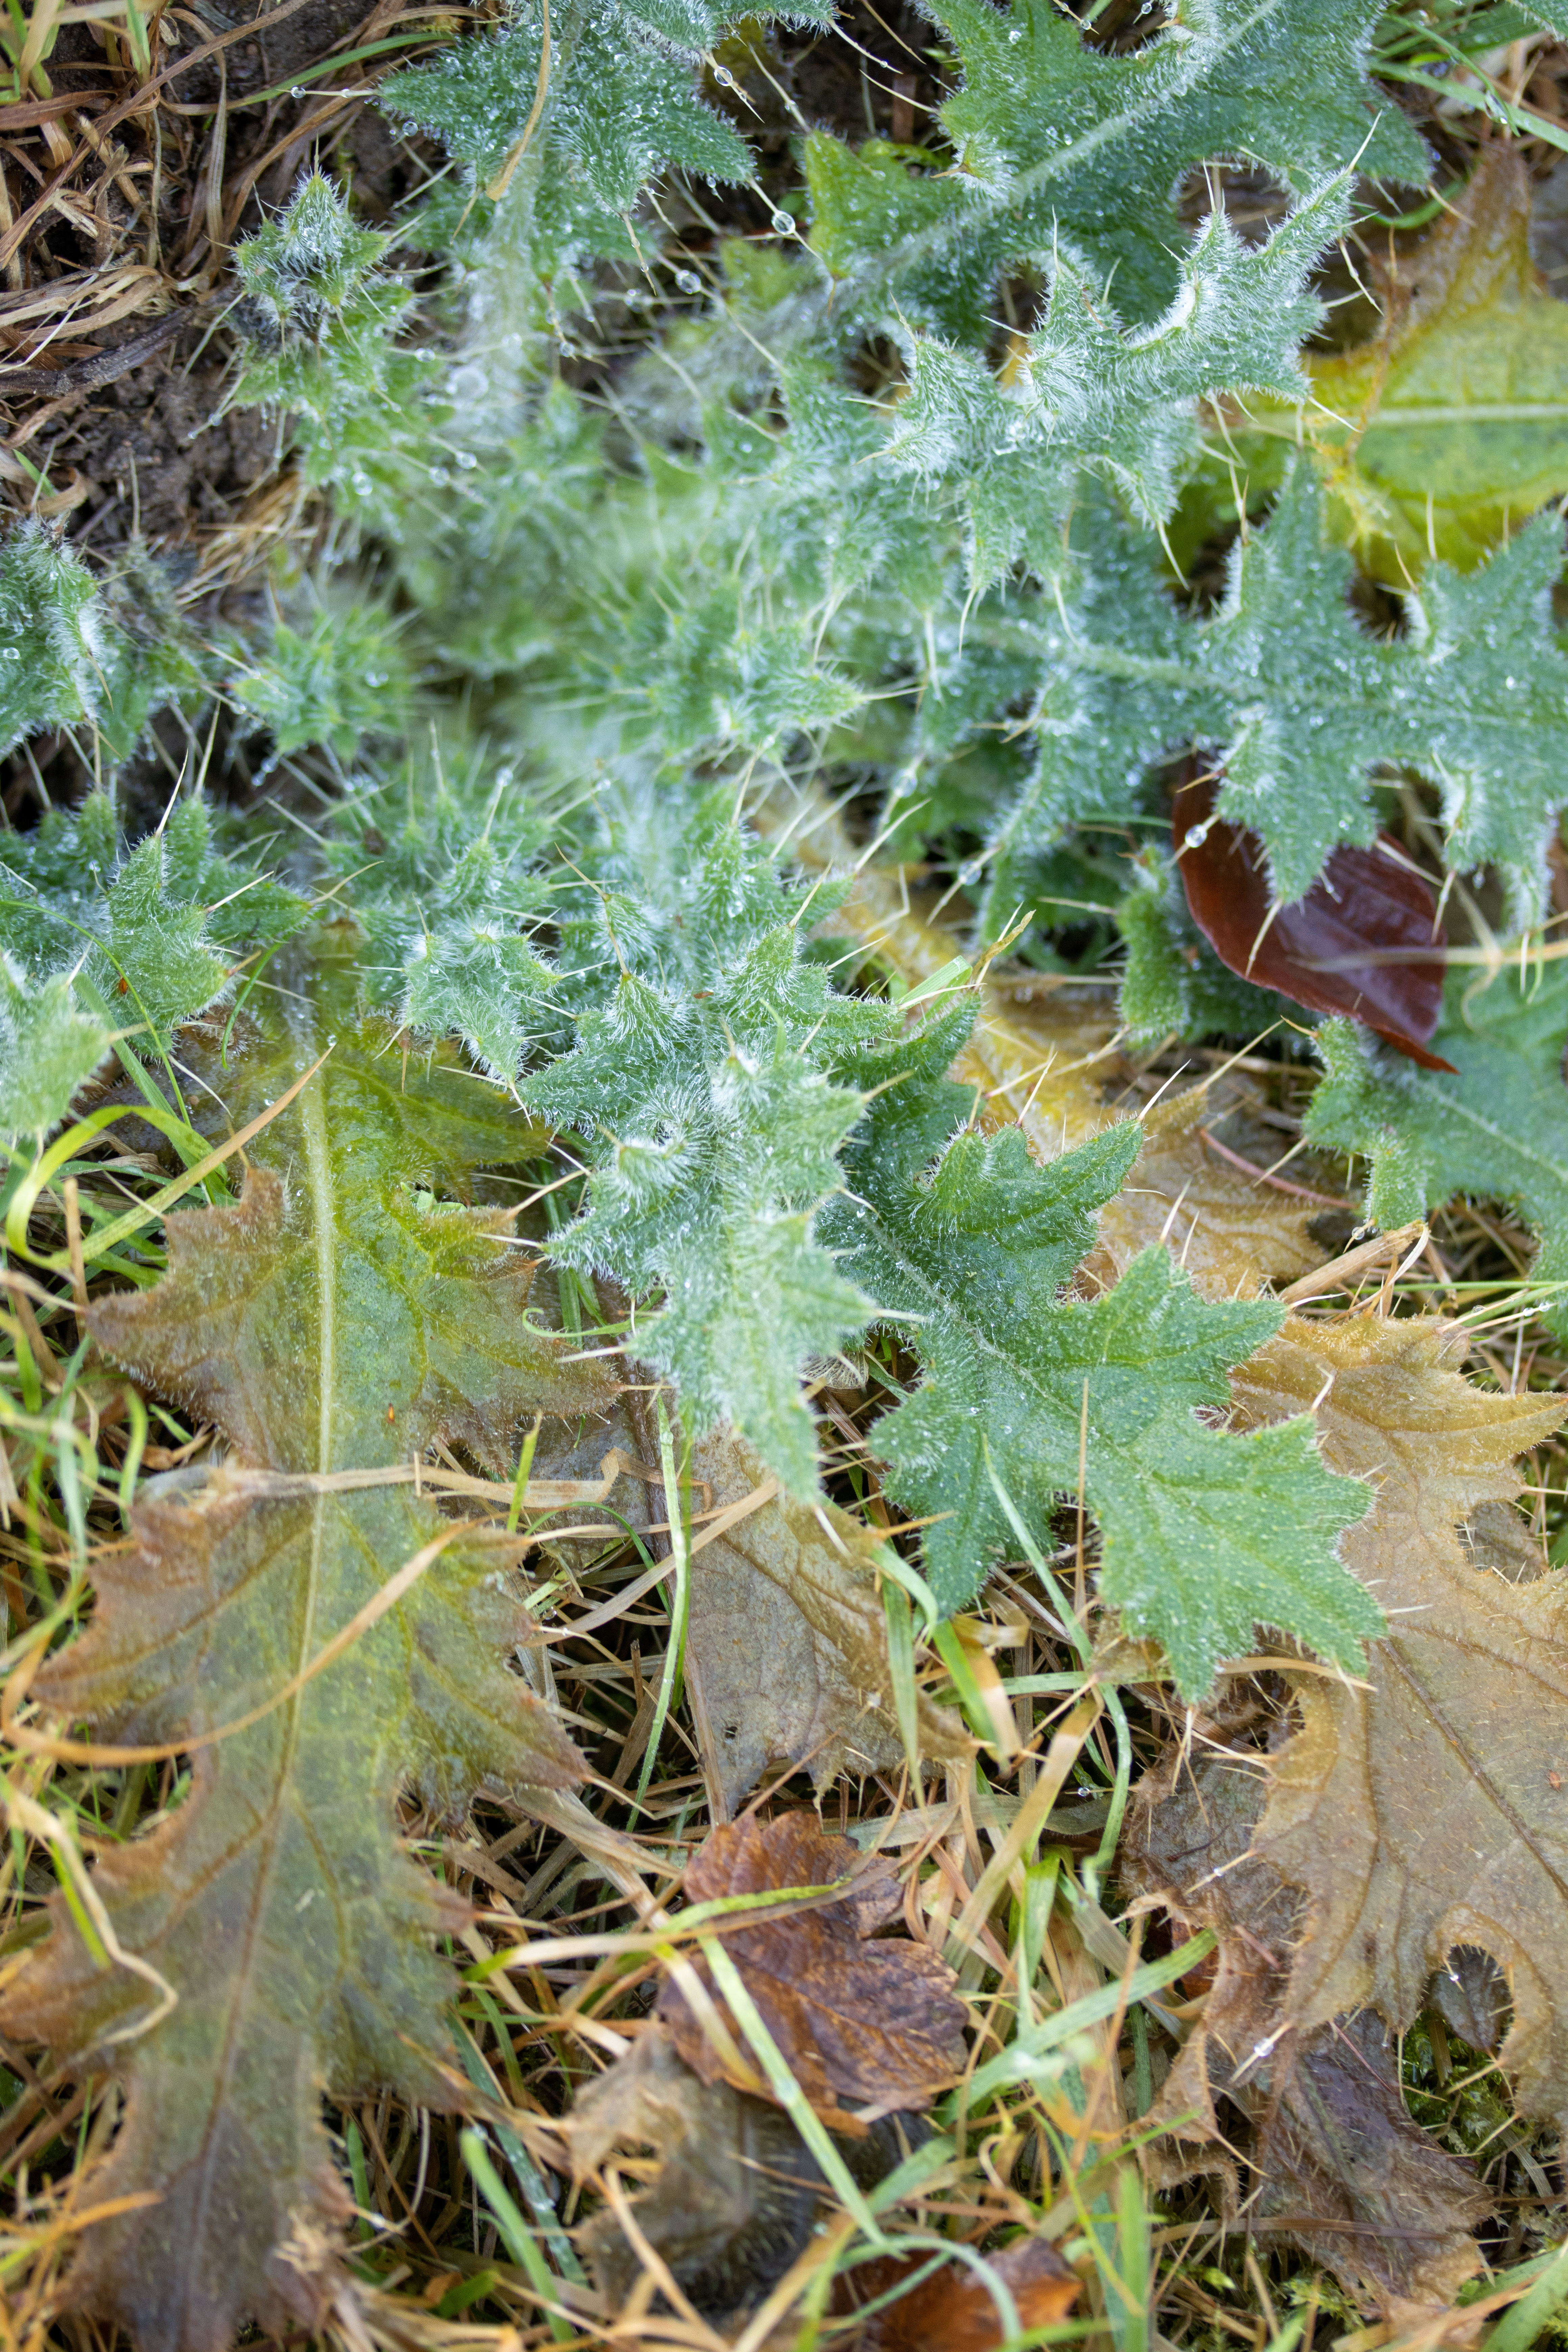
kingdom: Plantae
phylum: Tracheophyta
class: Magnoliopsida
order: Asterales
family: Asteraceae
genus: Cirsium
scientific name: Cirsium vulgare
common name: Horse-tidsel
